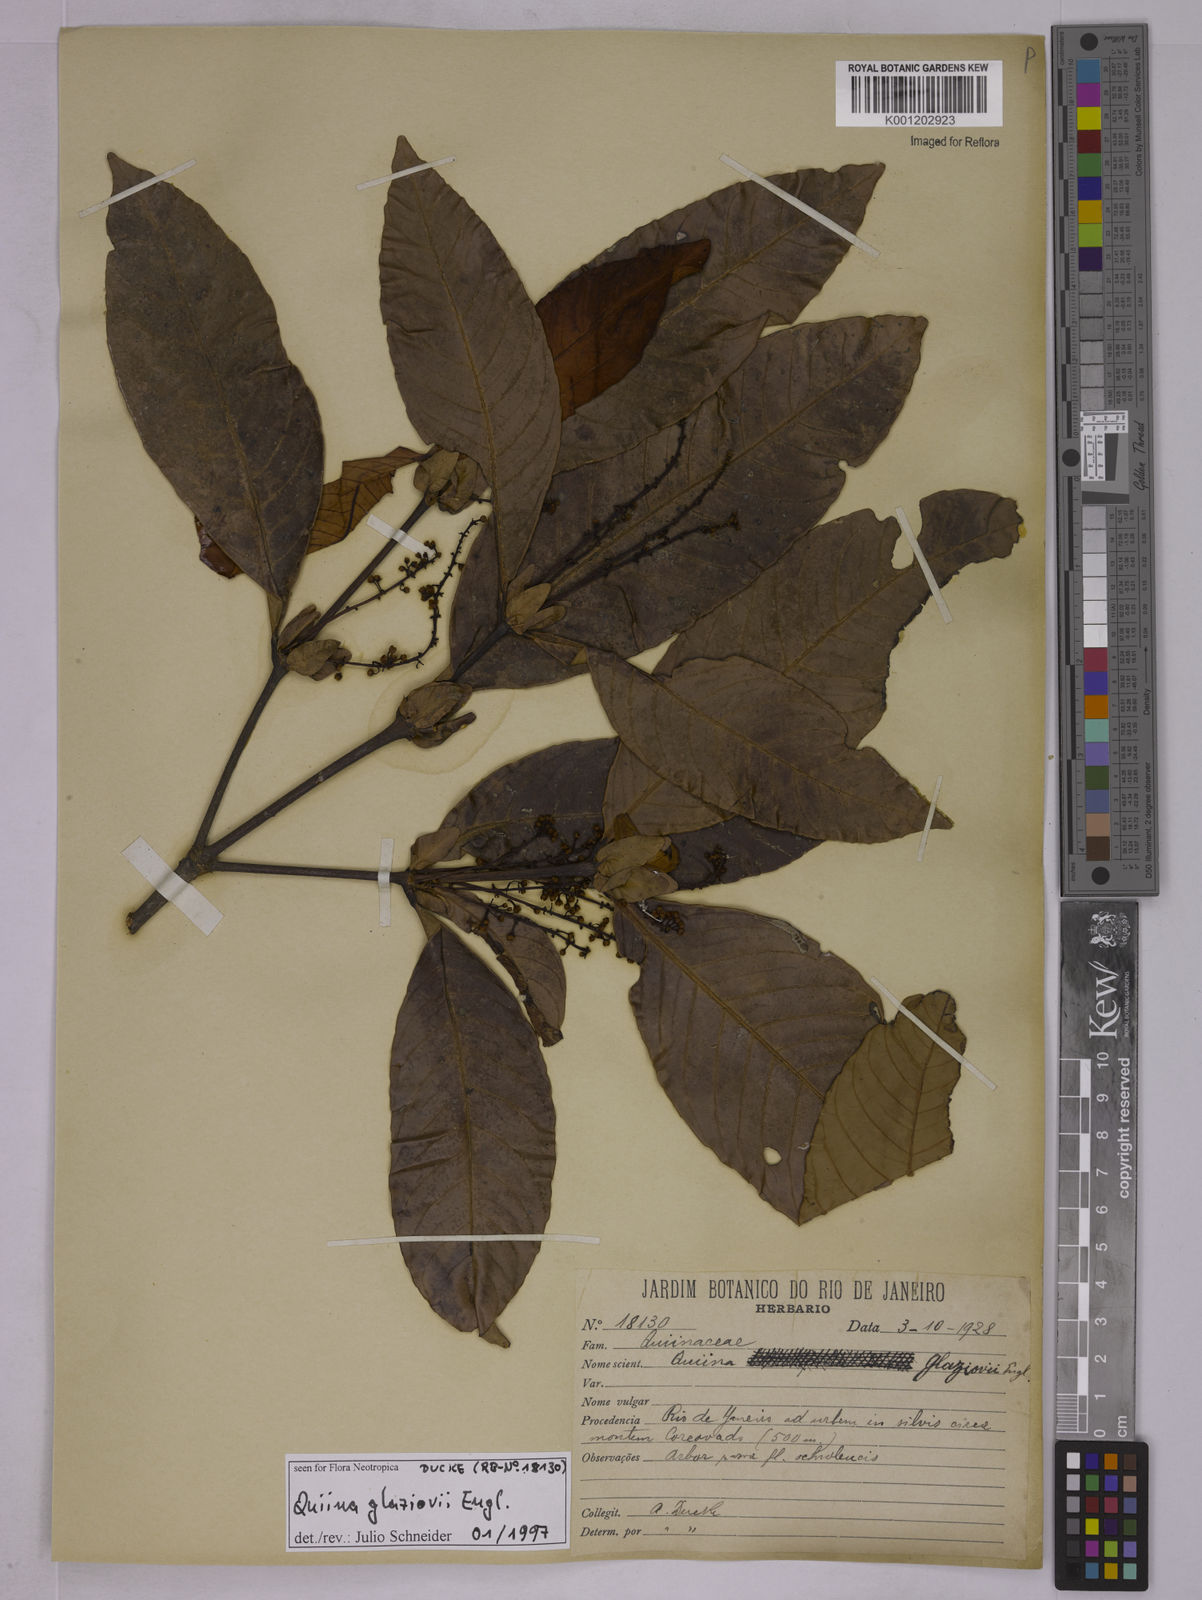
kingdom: Plantae
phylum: Tracheophyta
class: Magnoliopsida
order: Malpighiales
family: Quiinaceae
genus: Quiina
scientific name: Quiina glaziovii
